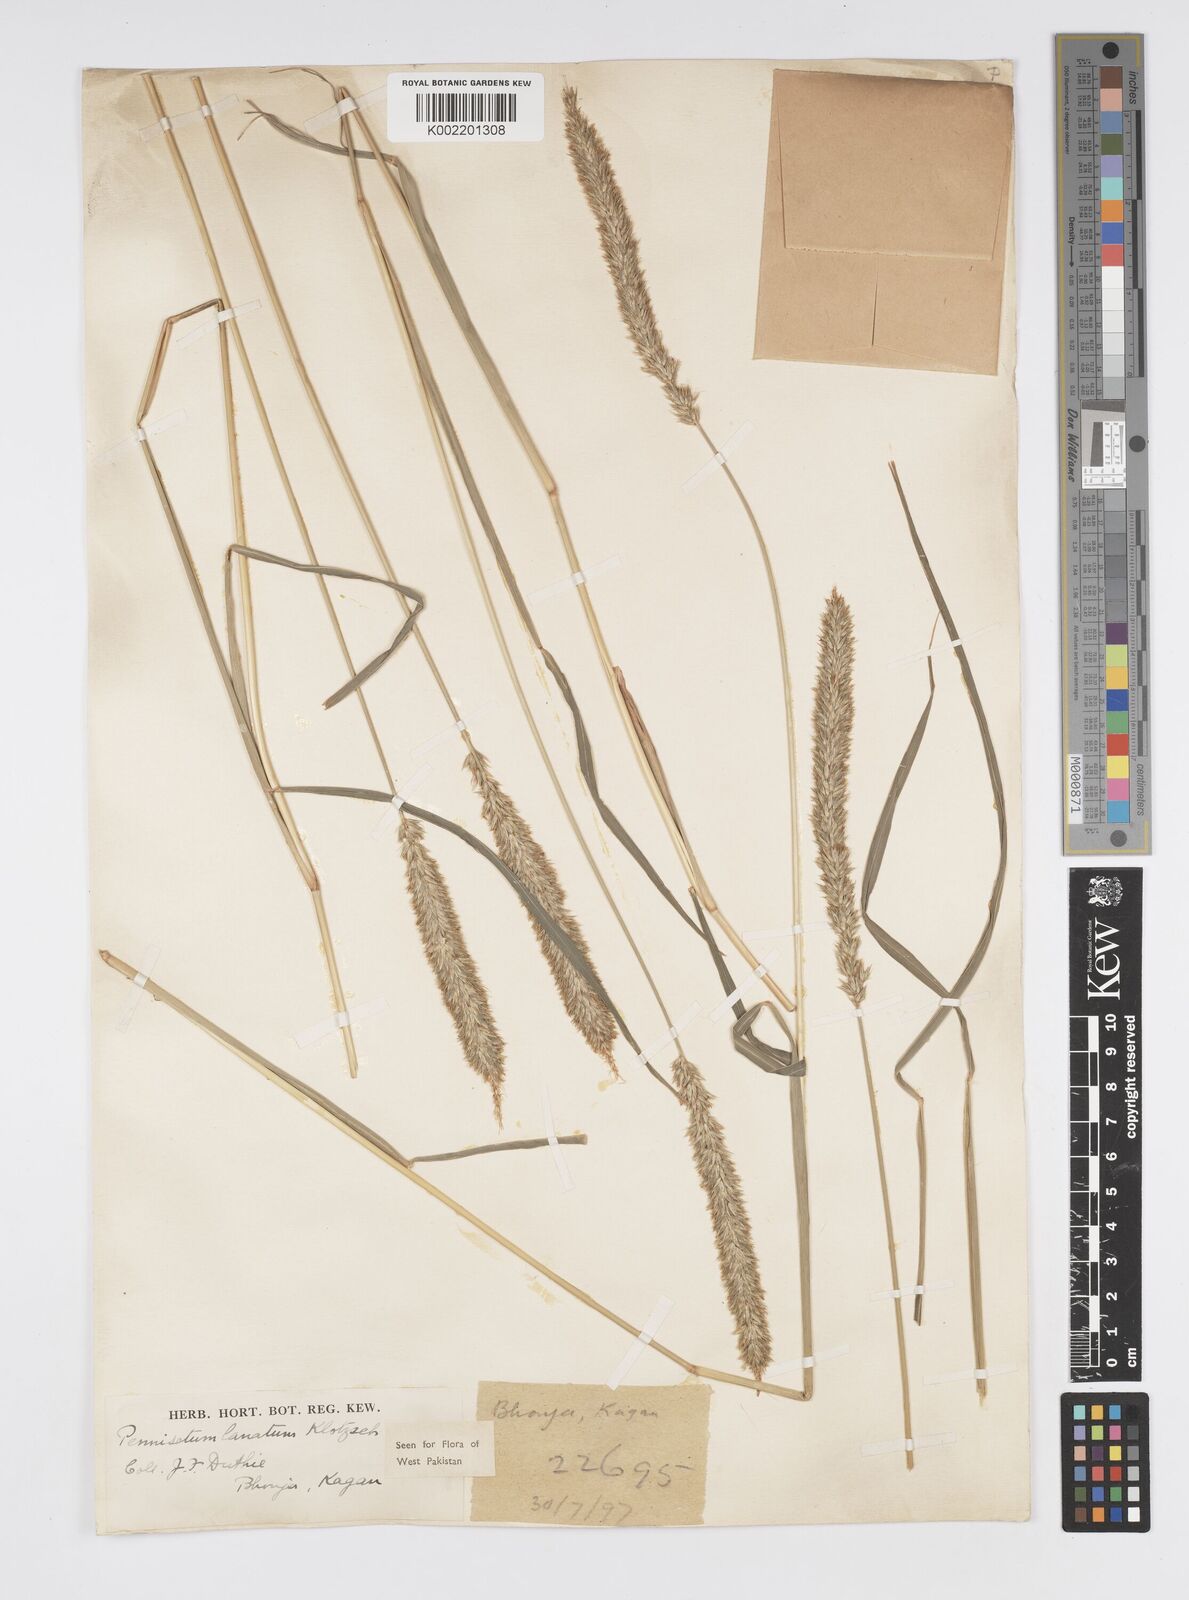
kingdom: Plantae
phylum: Tracheophyta
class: Liliopsida
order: Poales
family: Poaceae
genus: Cenchrus
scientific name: Cenchrus lanatus
